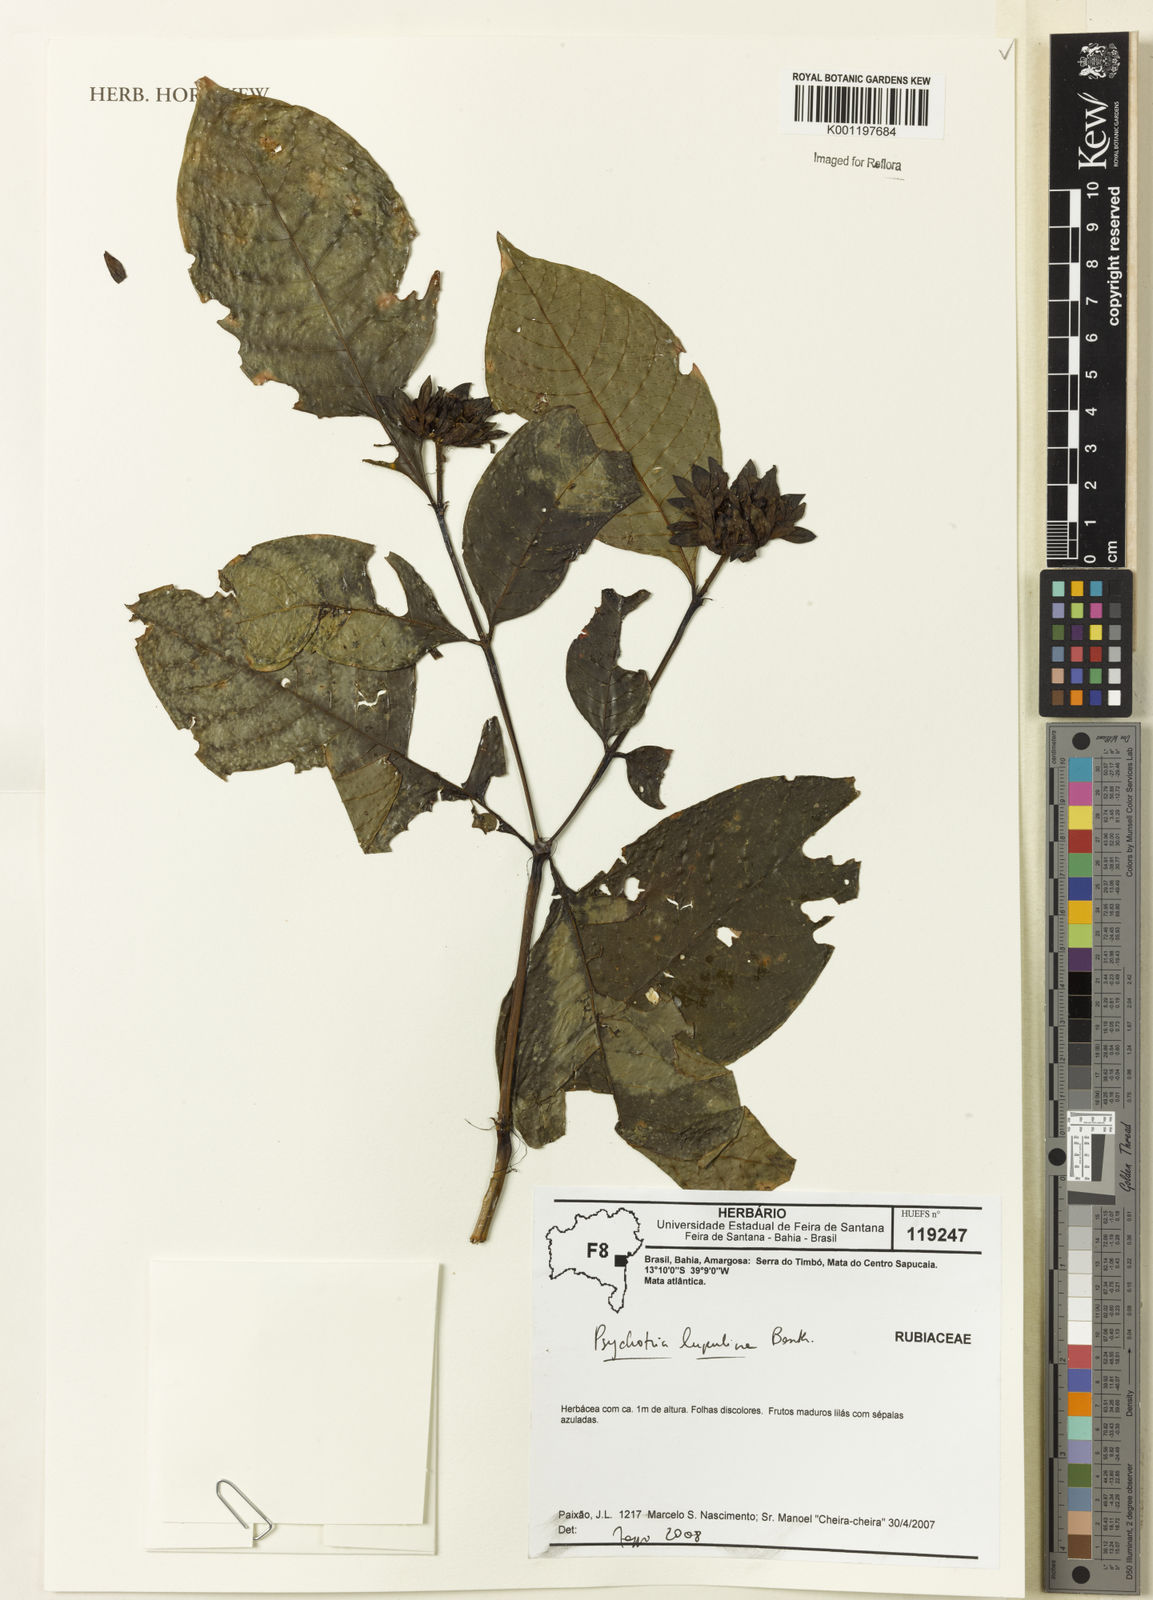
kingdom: Plantae
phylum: Tracheophyta
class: Magnoliopsida
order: Gentianales
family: Rubiaceae
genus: Palicourea
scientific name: Palicourea justiciifolia
